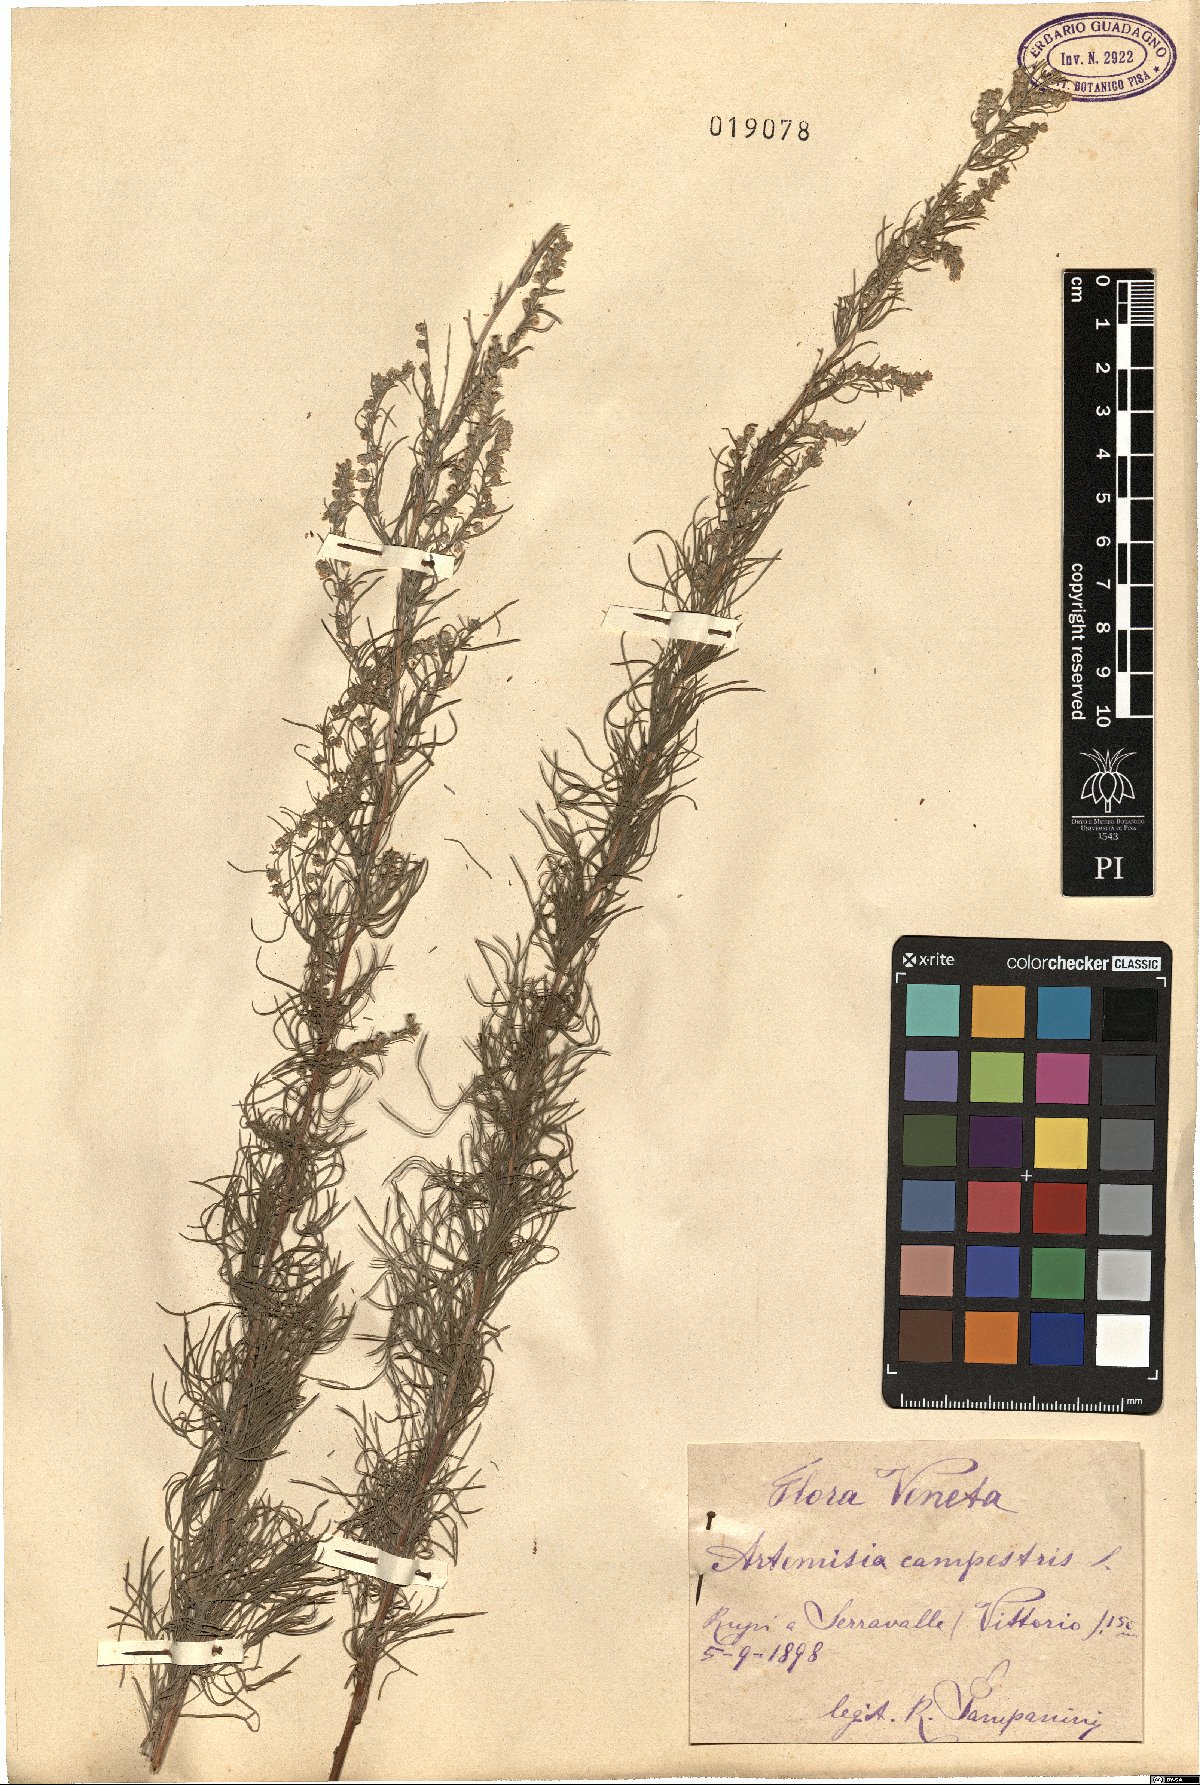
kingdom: Plantae
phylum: Tracheophyta
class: Magnoliopsida
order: Asterales
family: Asteraceae
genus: Artemisia
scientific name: Artemisia campestris
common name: Field wormwood
